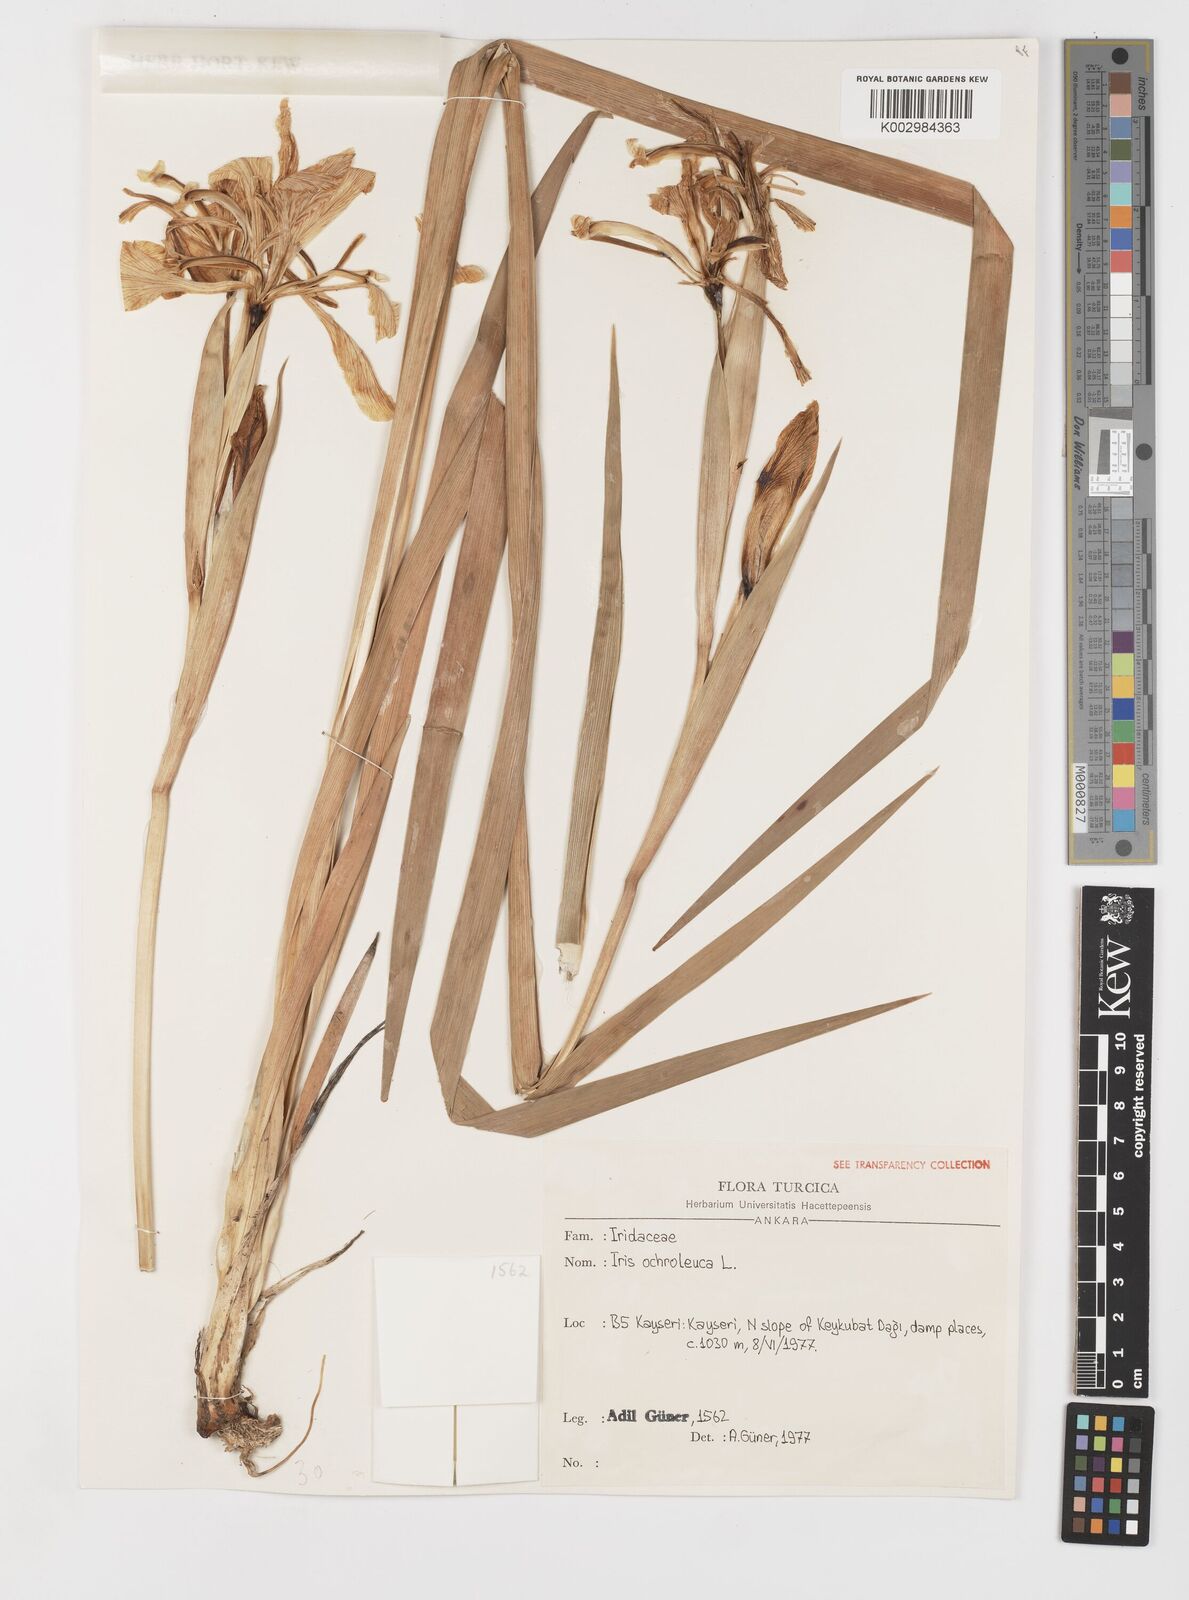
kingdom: Plantae
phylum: Tracheophyta
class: Liliopsida
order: Asparagales
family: Iridaceae
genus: Iris
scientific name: Iris orientalis
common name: Turkish iris
